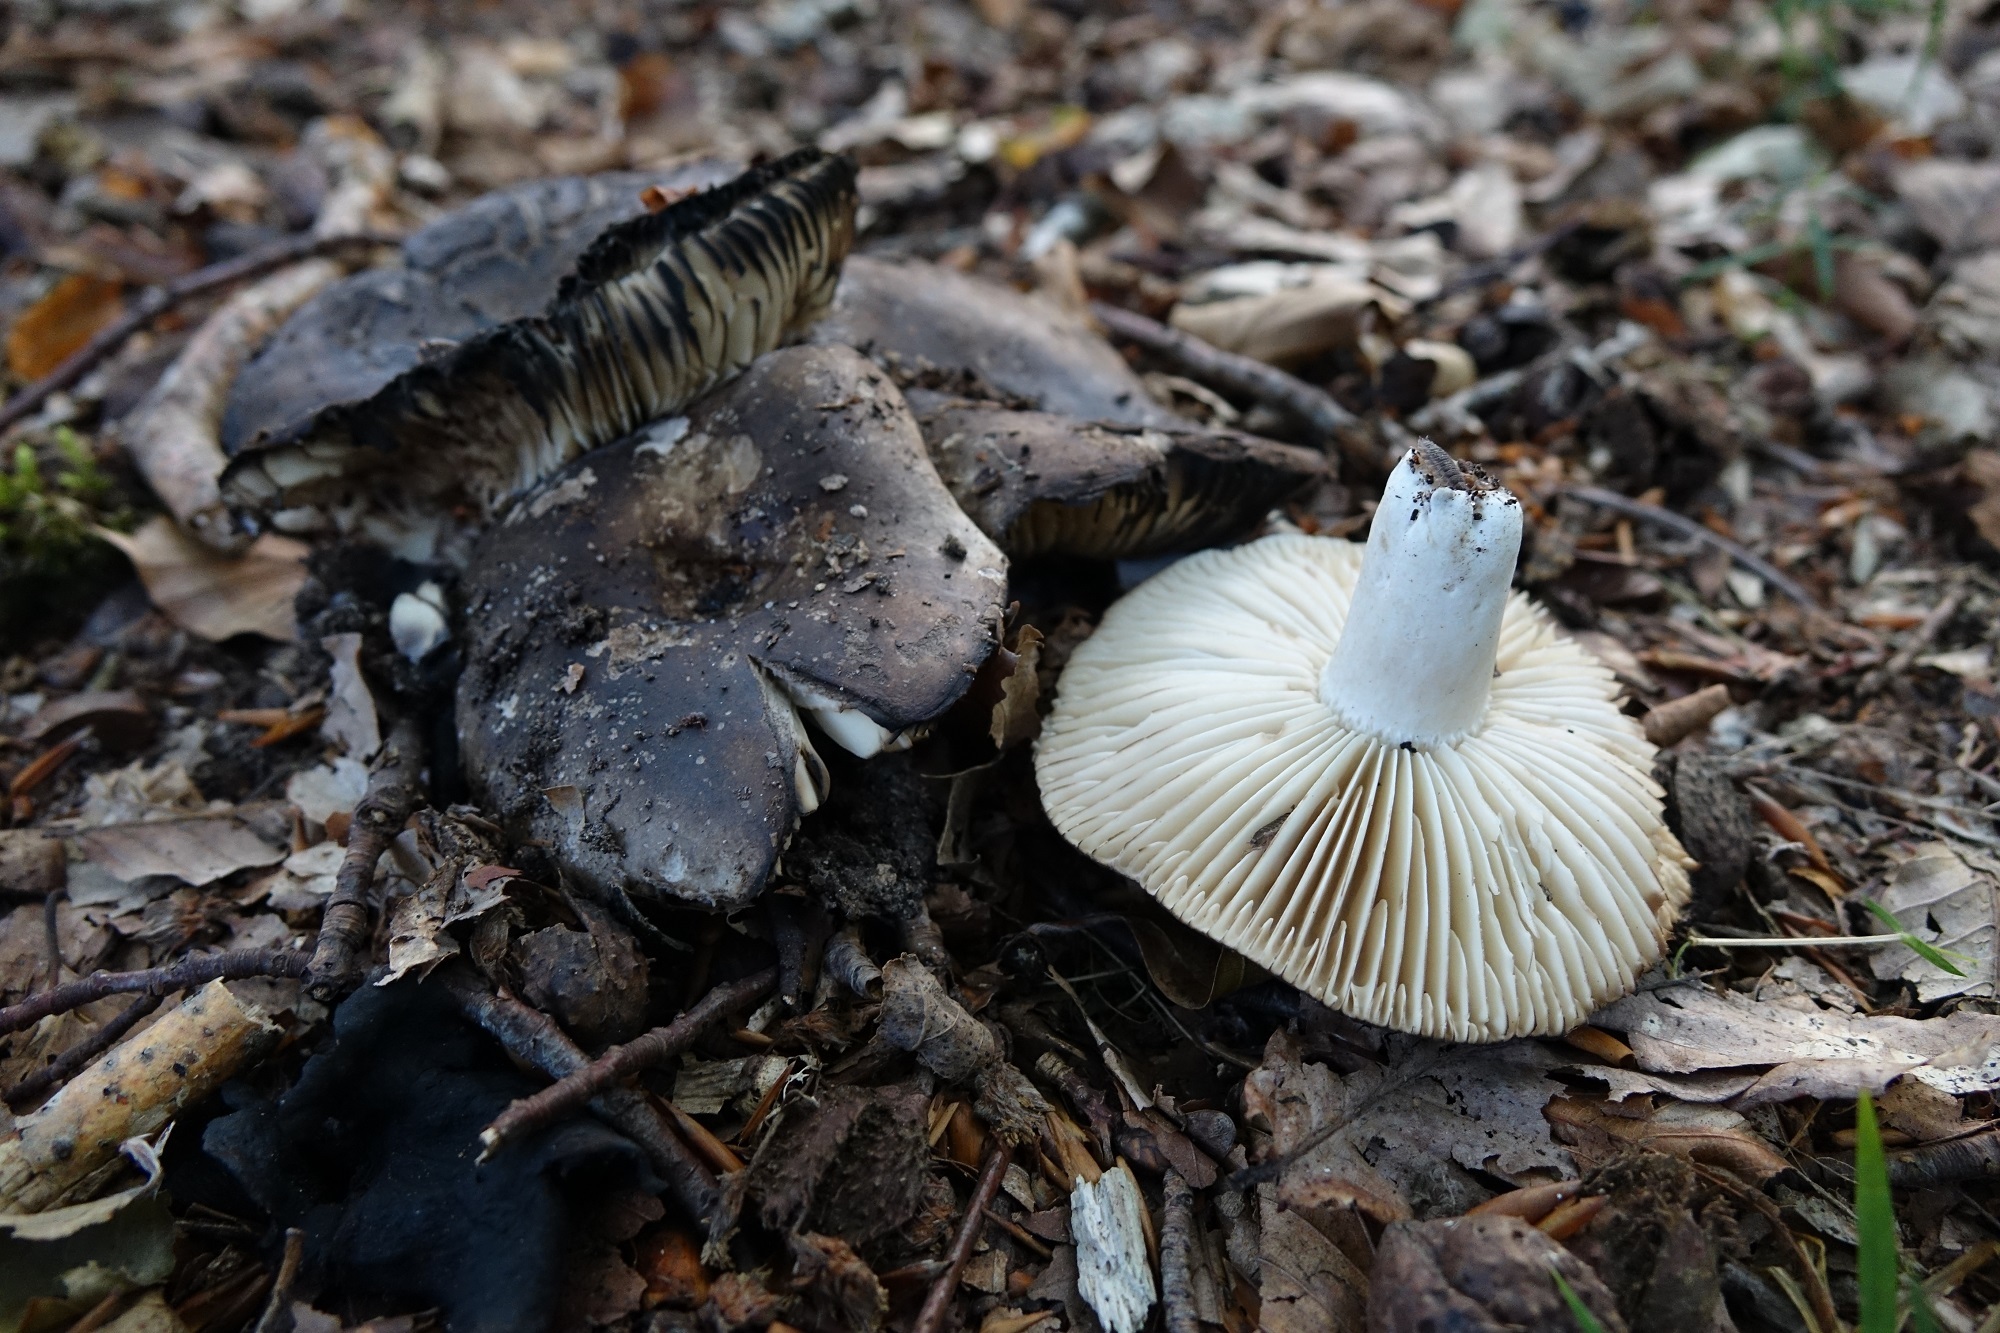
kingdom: Fungi
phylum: Basidiomycota
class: Agaricomycetes
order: Russulales
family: Russulaceae
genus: Russula
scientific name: Russula adusta
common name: Winecork brittlegill
